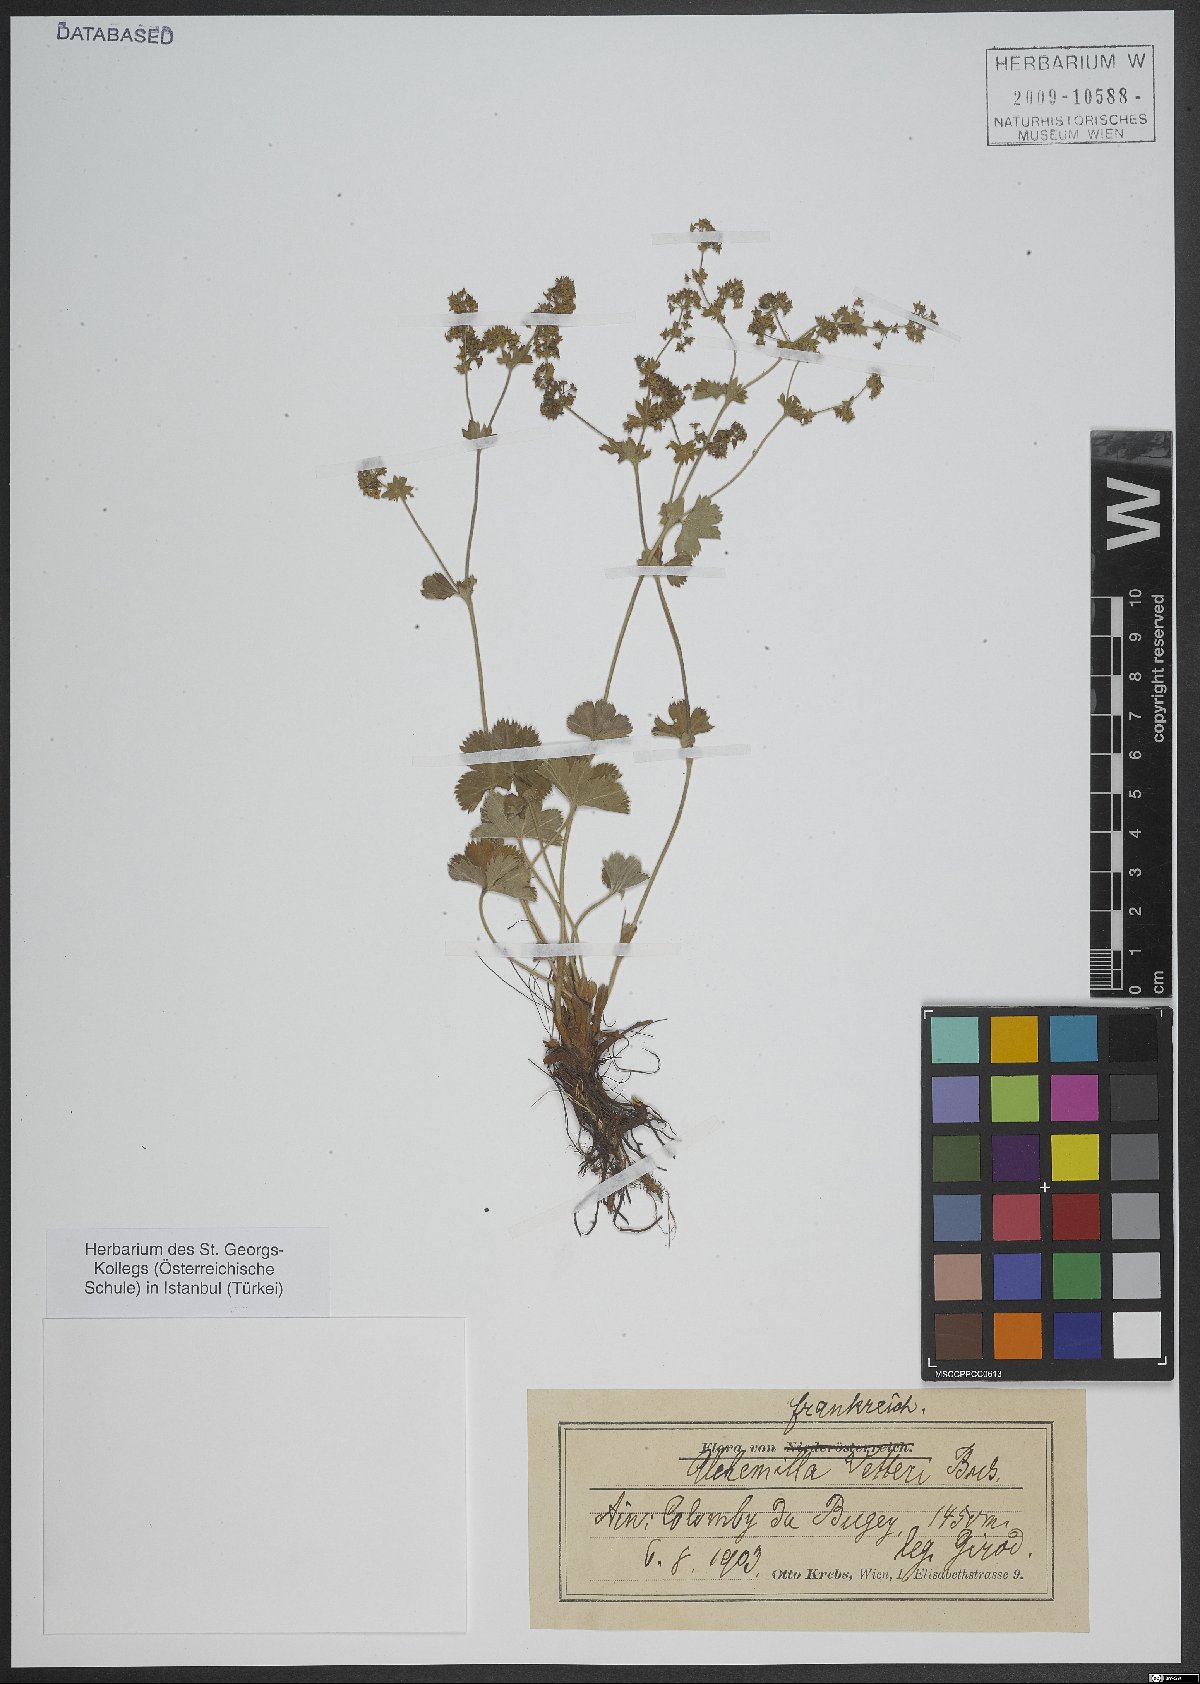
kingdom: Plantae
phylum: Tracheophyta
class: Magnoliopsida
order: Caryophyllales
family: Caryophyllaceae
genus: Minuartia
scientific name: Minuartia
